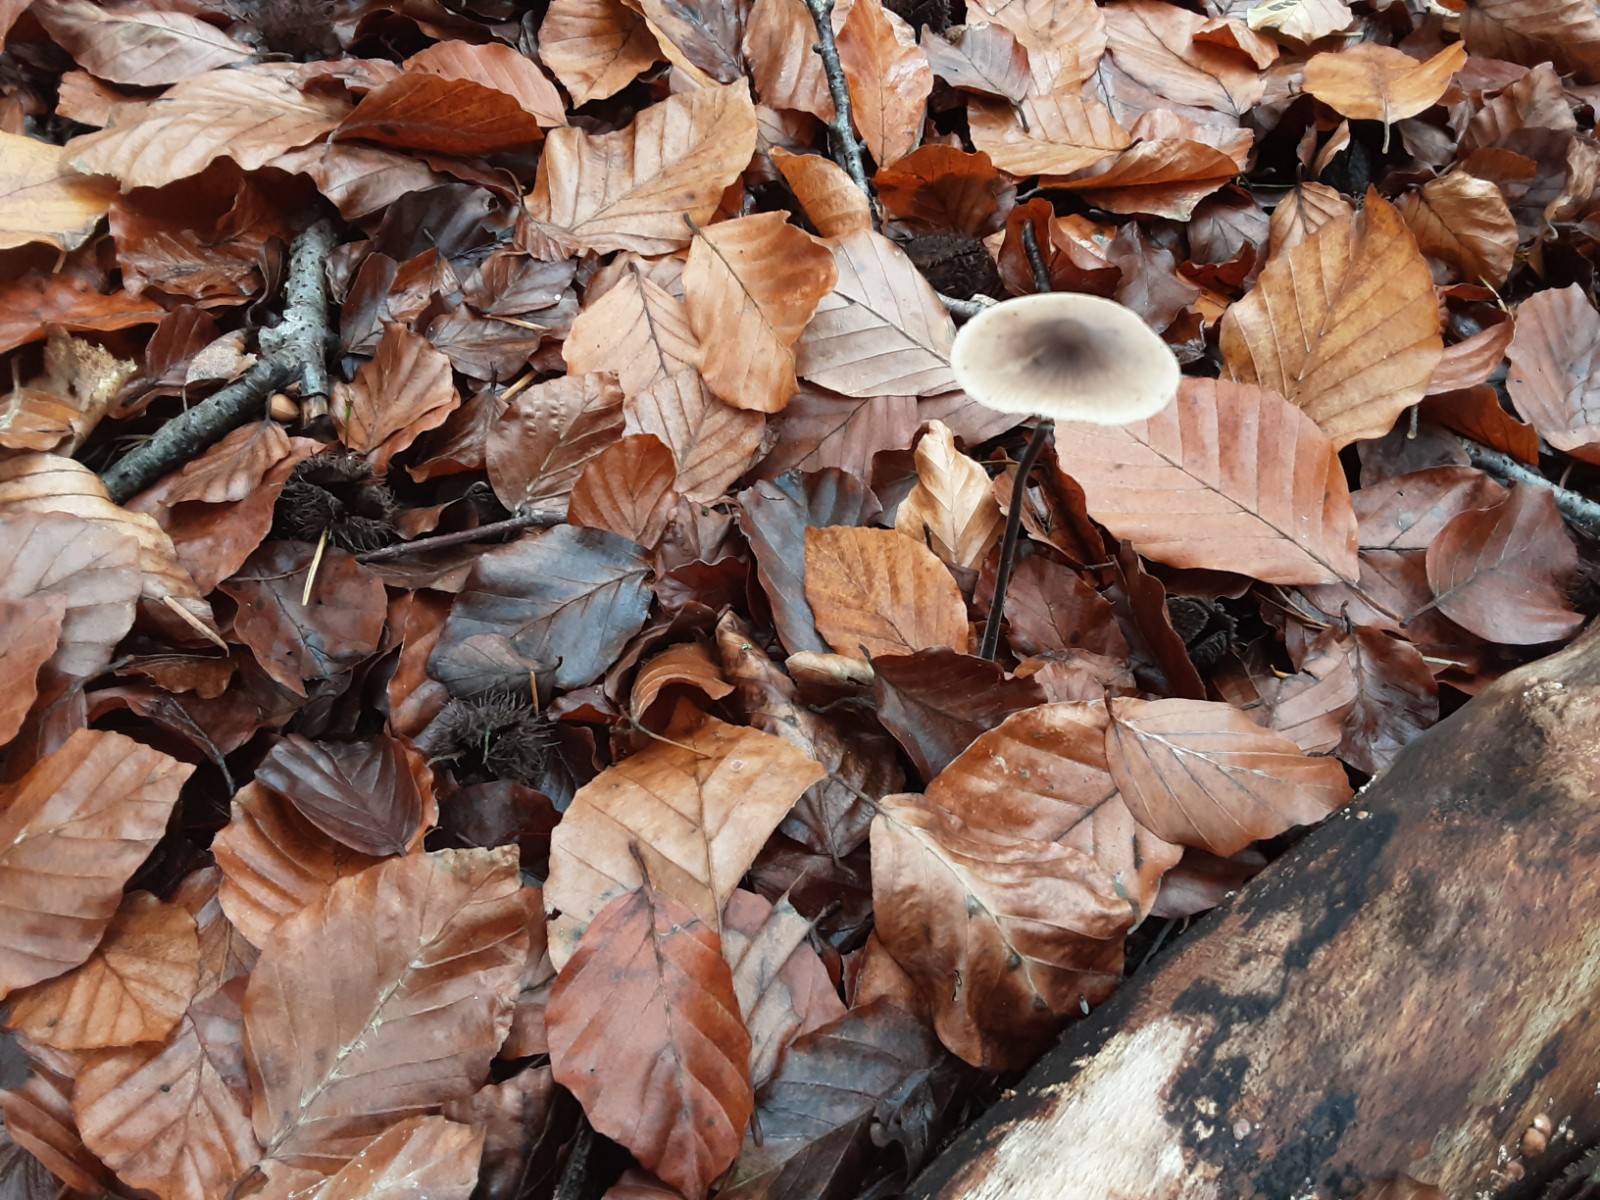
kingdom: Fungi
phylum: Basidiomycota
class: Agaricomycetes
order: Agaricales
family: Omphalotaceae
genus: Mycetinis
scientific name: Mycetinis alliaceus
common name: stor løghat
